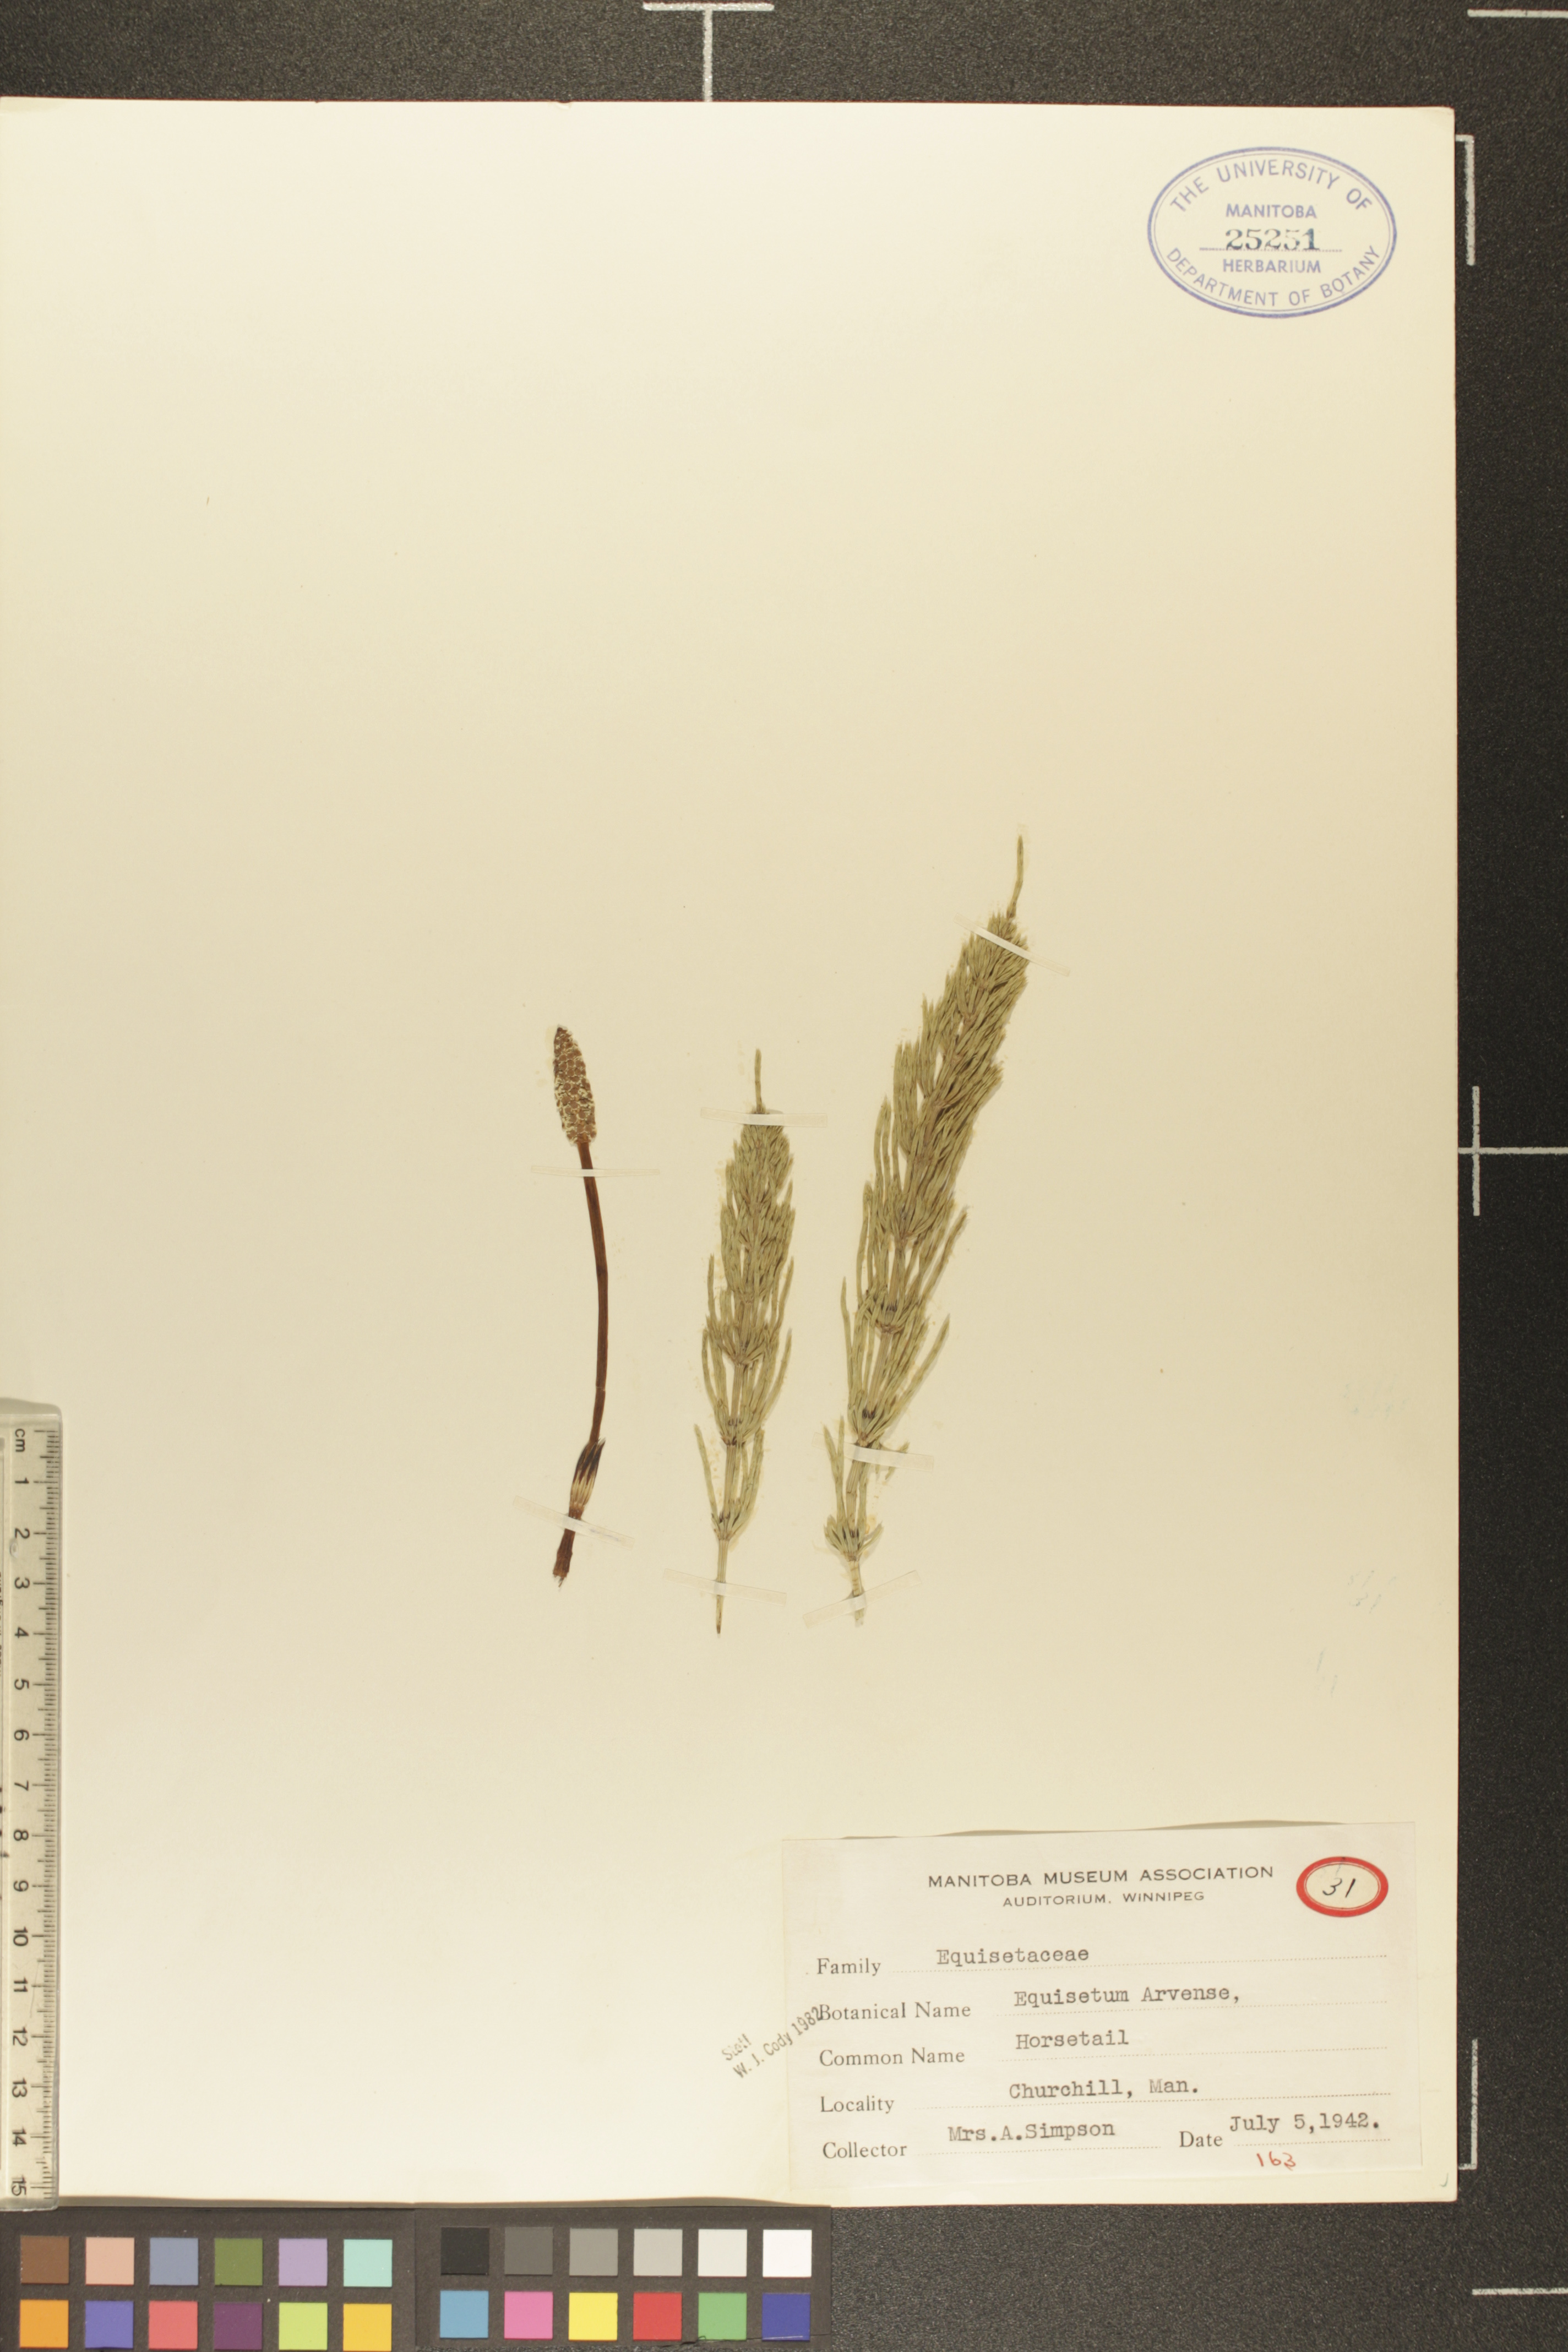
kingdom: Plantae
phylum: Tracheophyta
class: Polypodiopsida
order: Equisetales
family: Equisetaceae
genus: Equisetum
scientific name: Equisetum arvense
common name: Field horsetail
